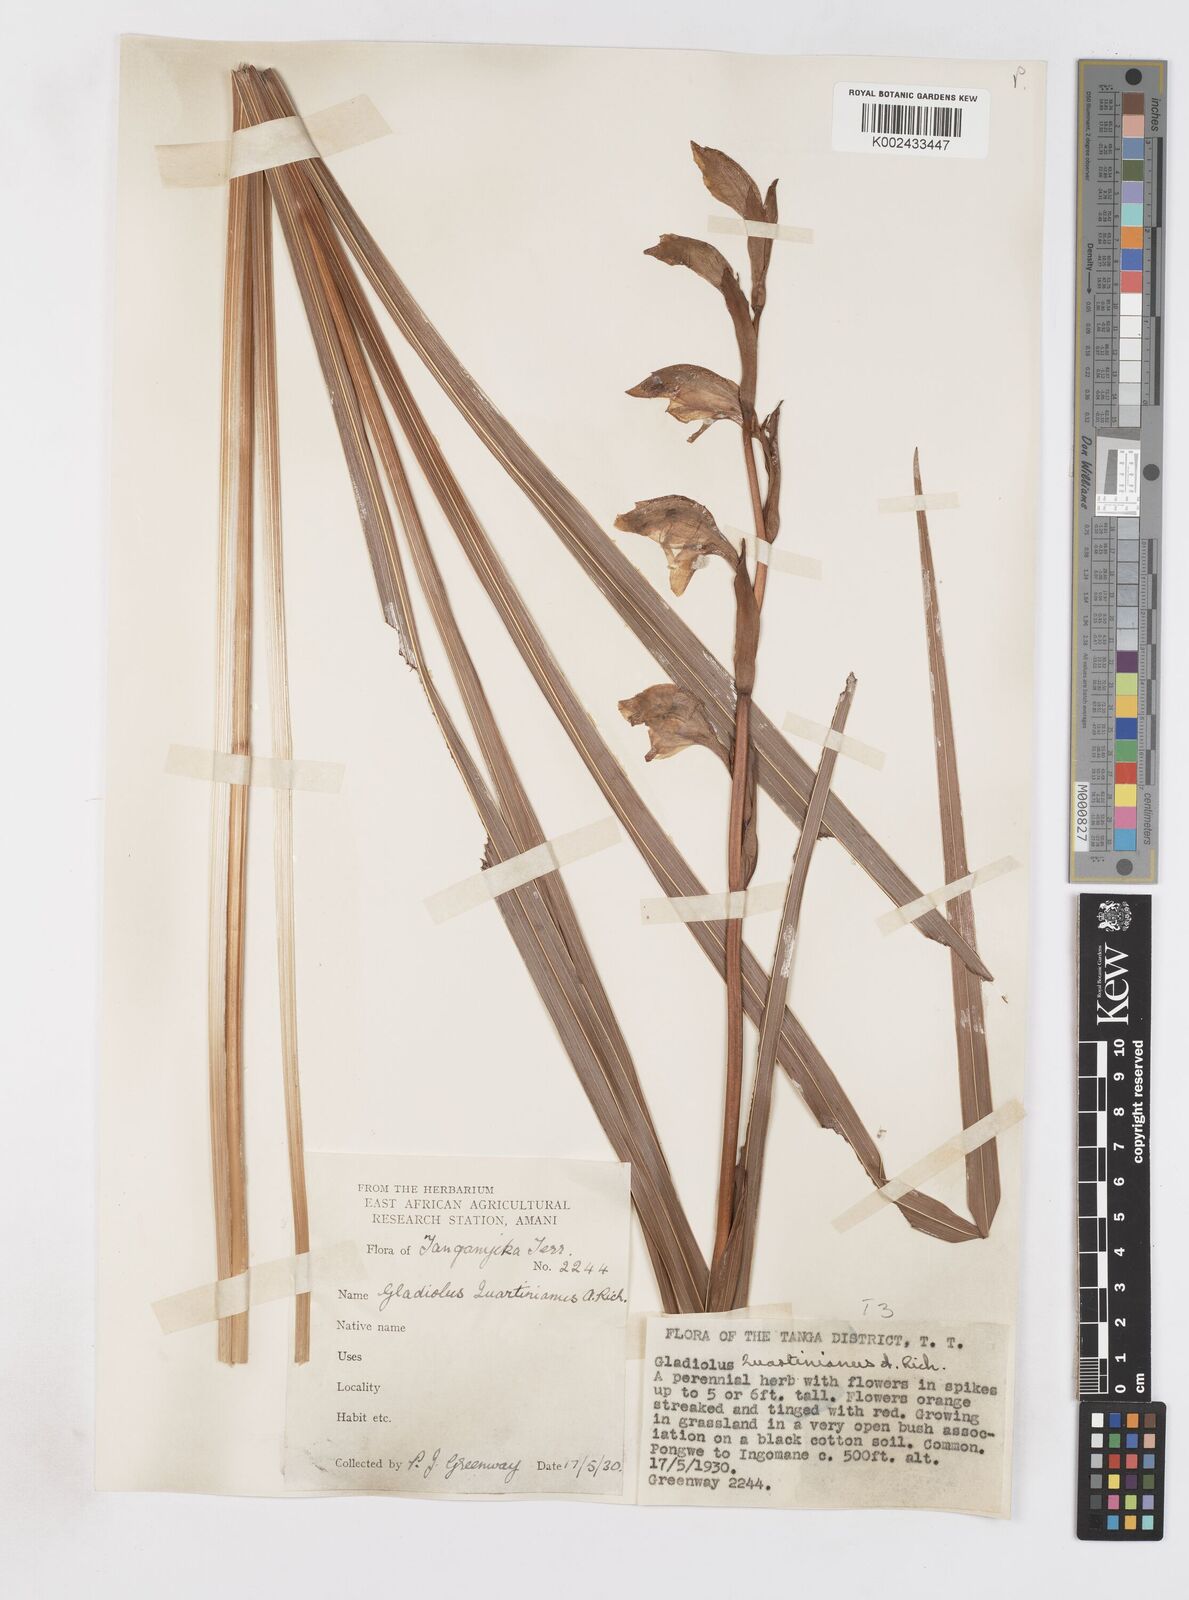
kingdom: Plantae
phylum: Tracheophyta
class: Liliopsida
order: Asparagales
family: Iridaceae
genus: Gladiolus
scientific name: Gladiolus dalenii
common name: Cornflag
